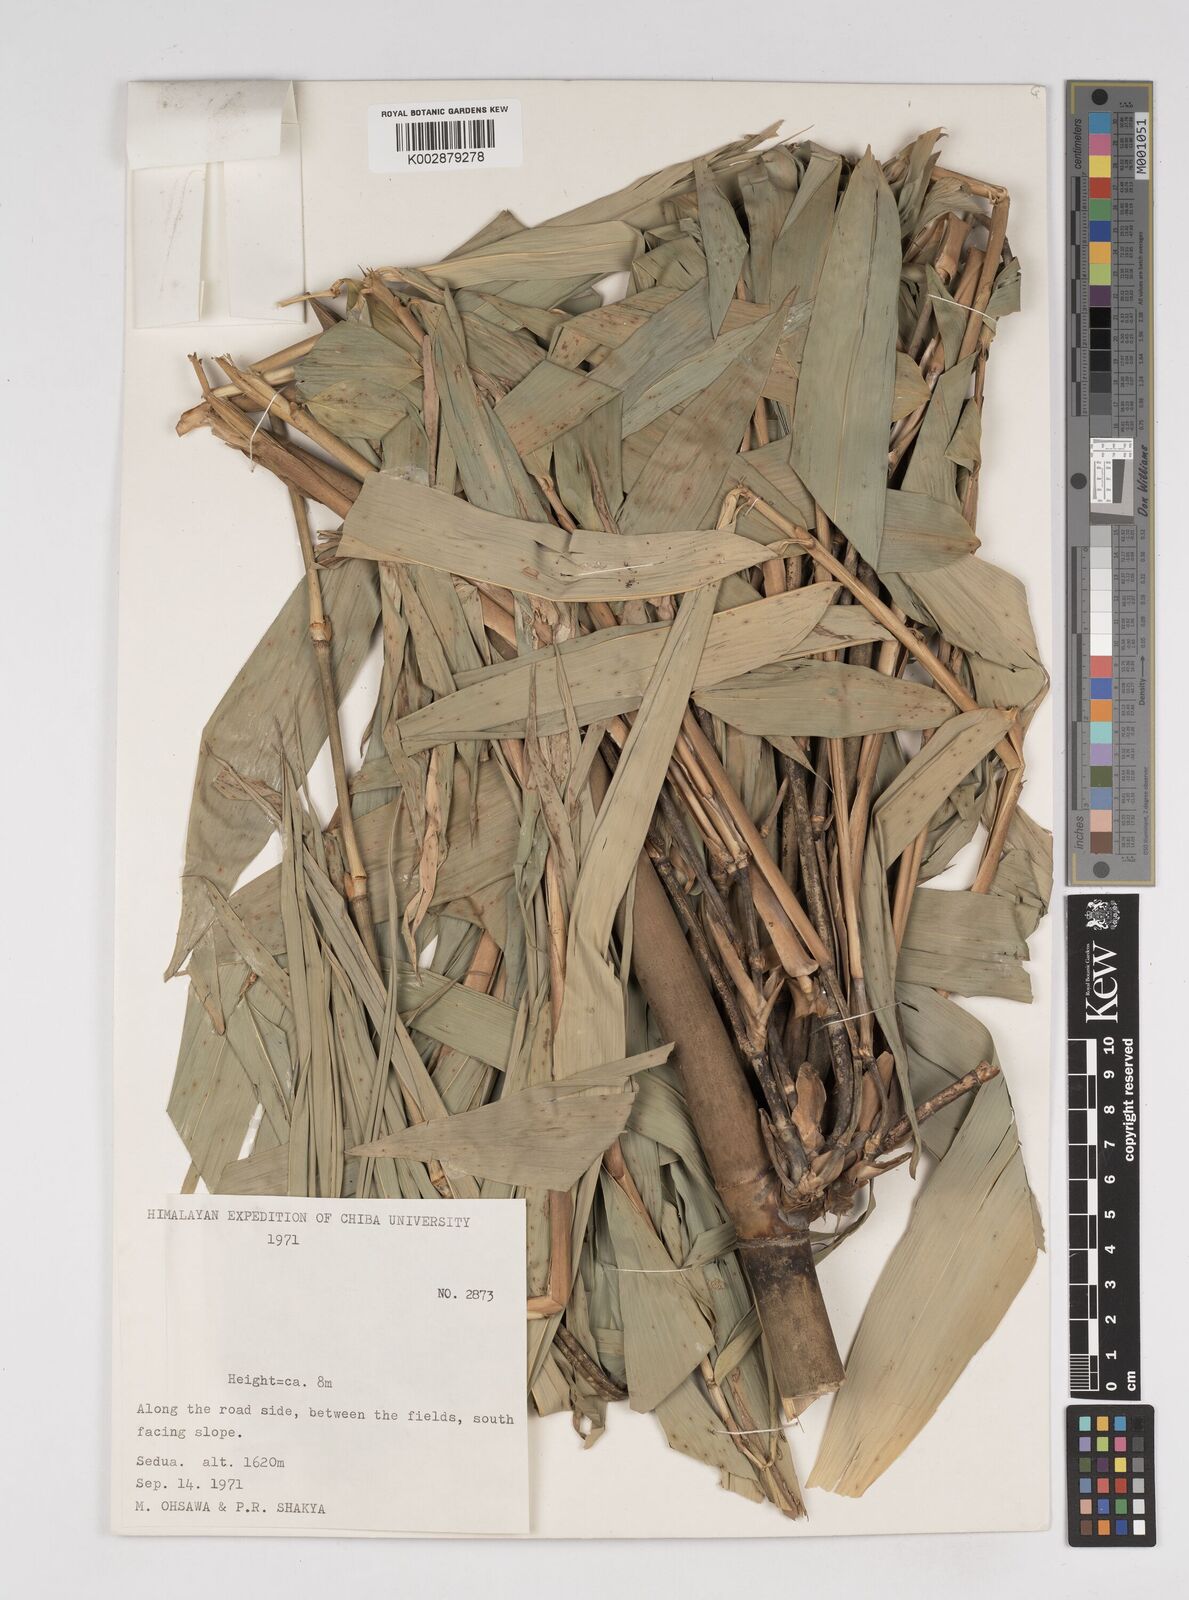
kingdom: Plantae
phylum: Tracheophyta
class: Liliopsida
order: Poales
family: Poaceae
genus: Dendrocalamus
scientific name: Dendrocalamus
